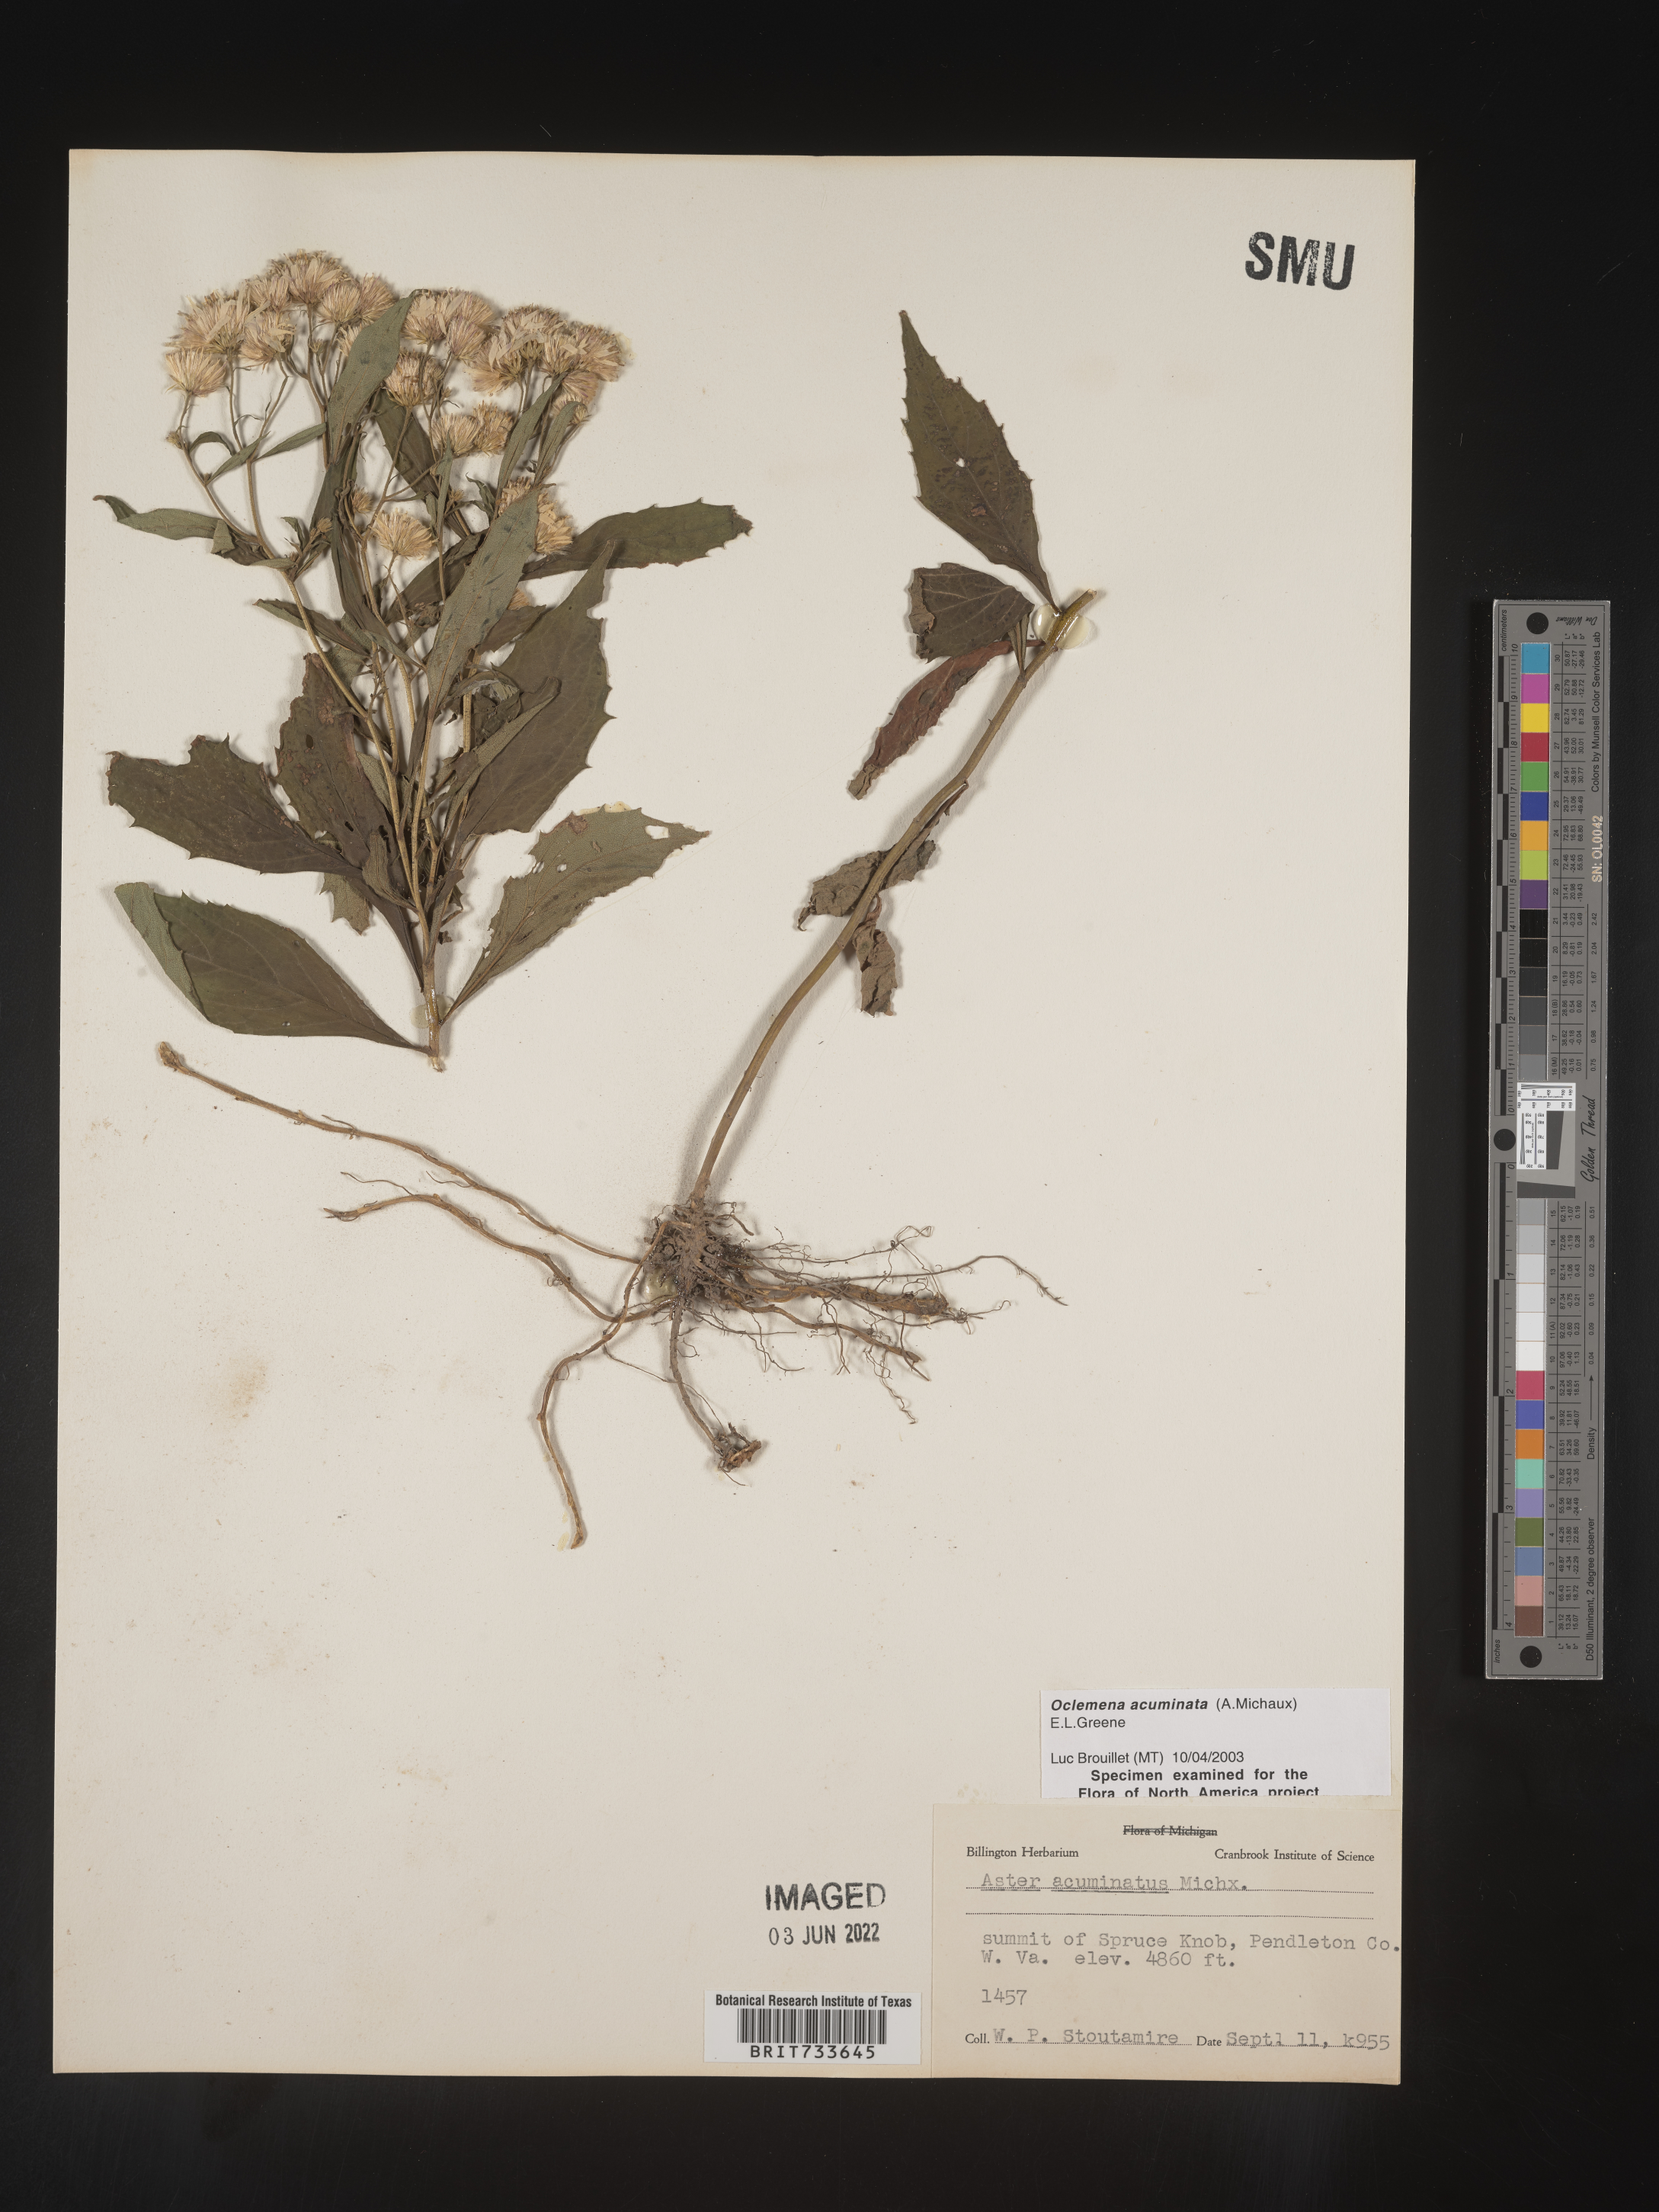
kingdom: Plantae
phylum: Tracheophyta
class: Magnoliopsida
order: Asterales
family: Asteraceae
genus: Oclemena
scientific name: Oclemena acuminata
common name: Mountain aster
